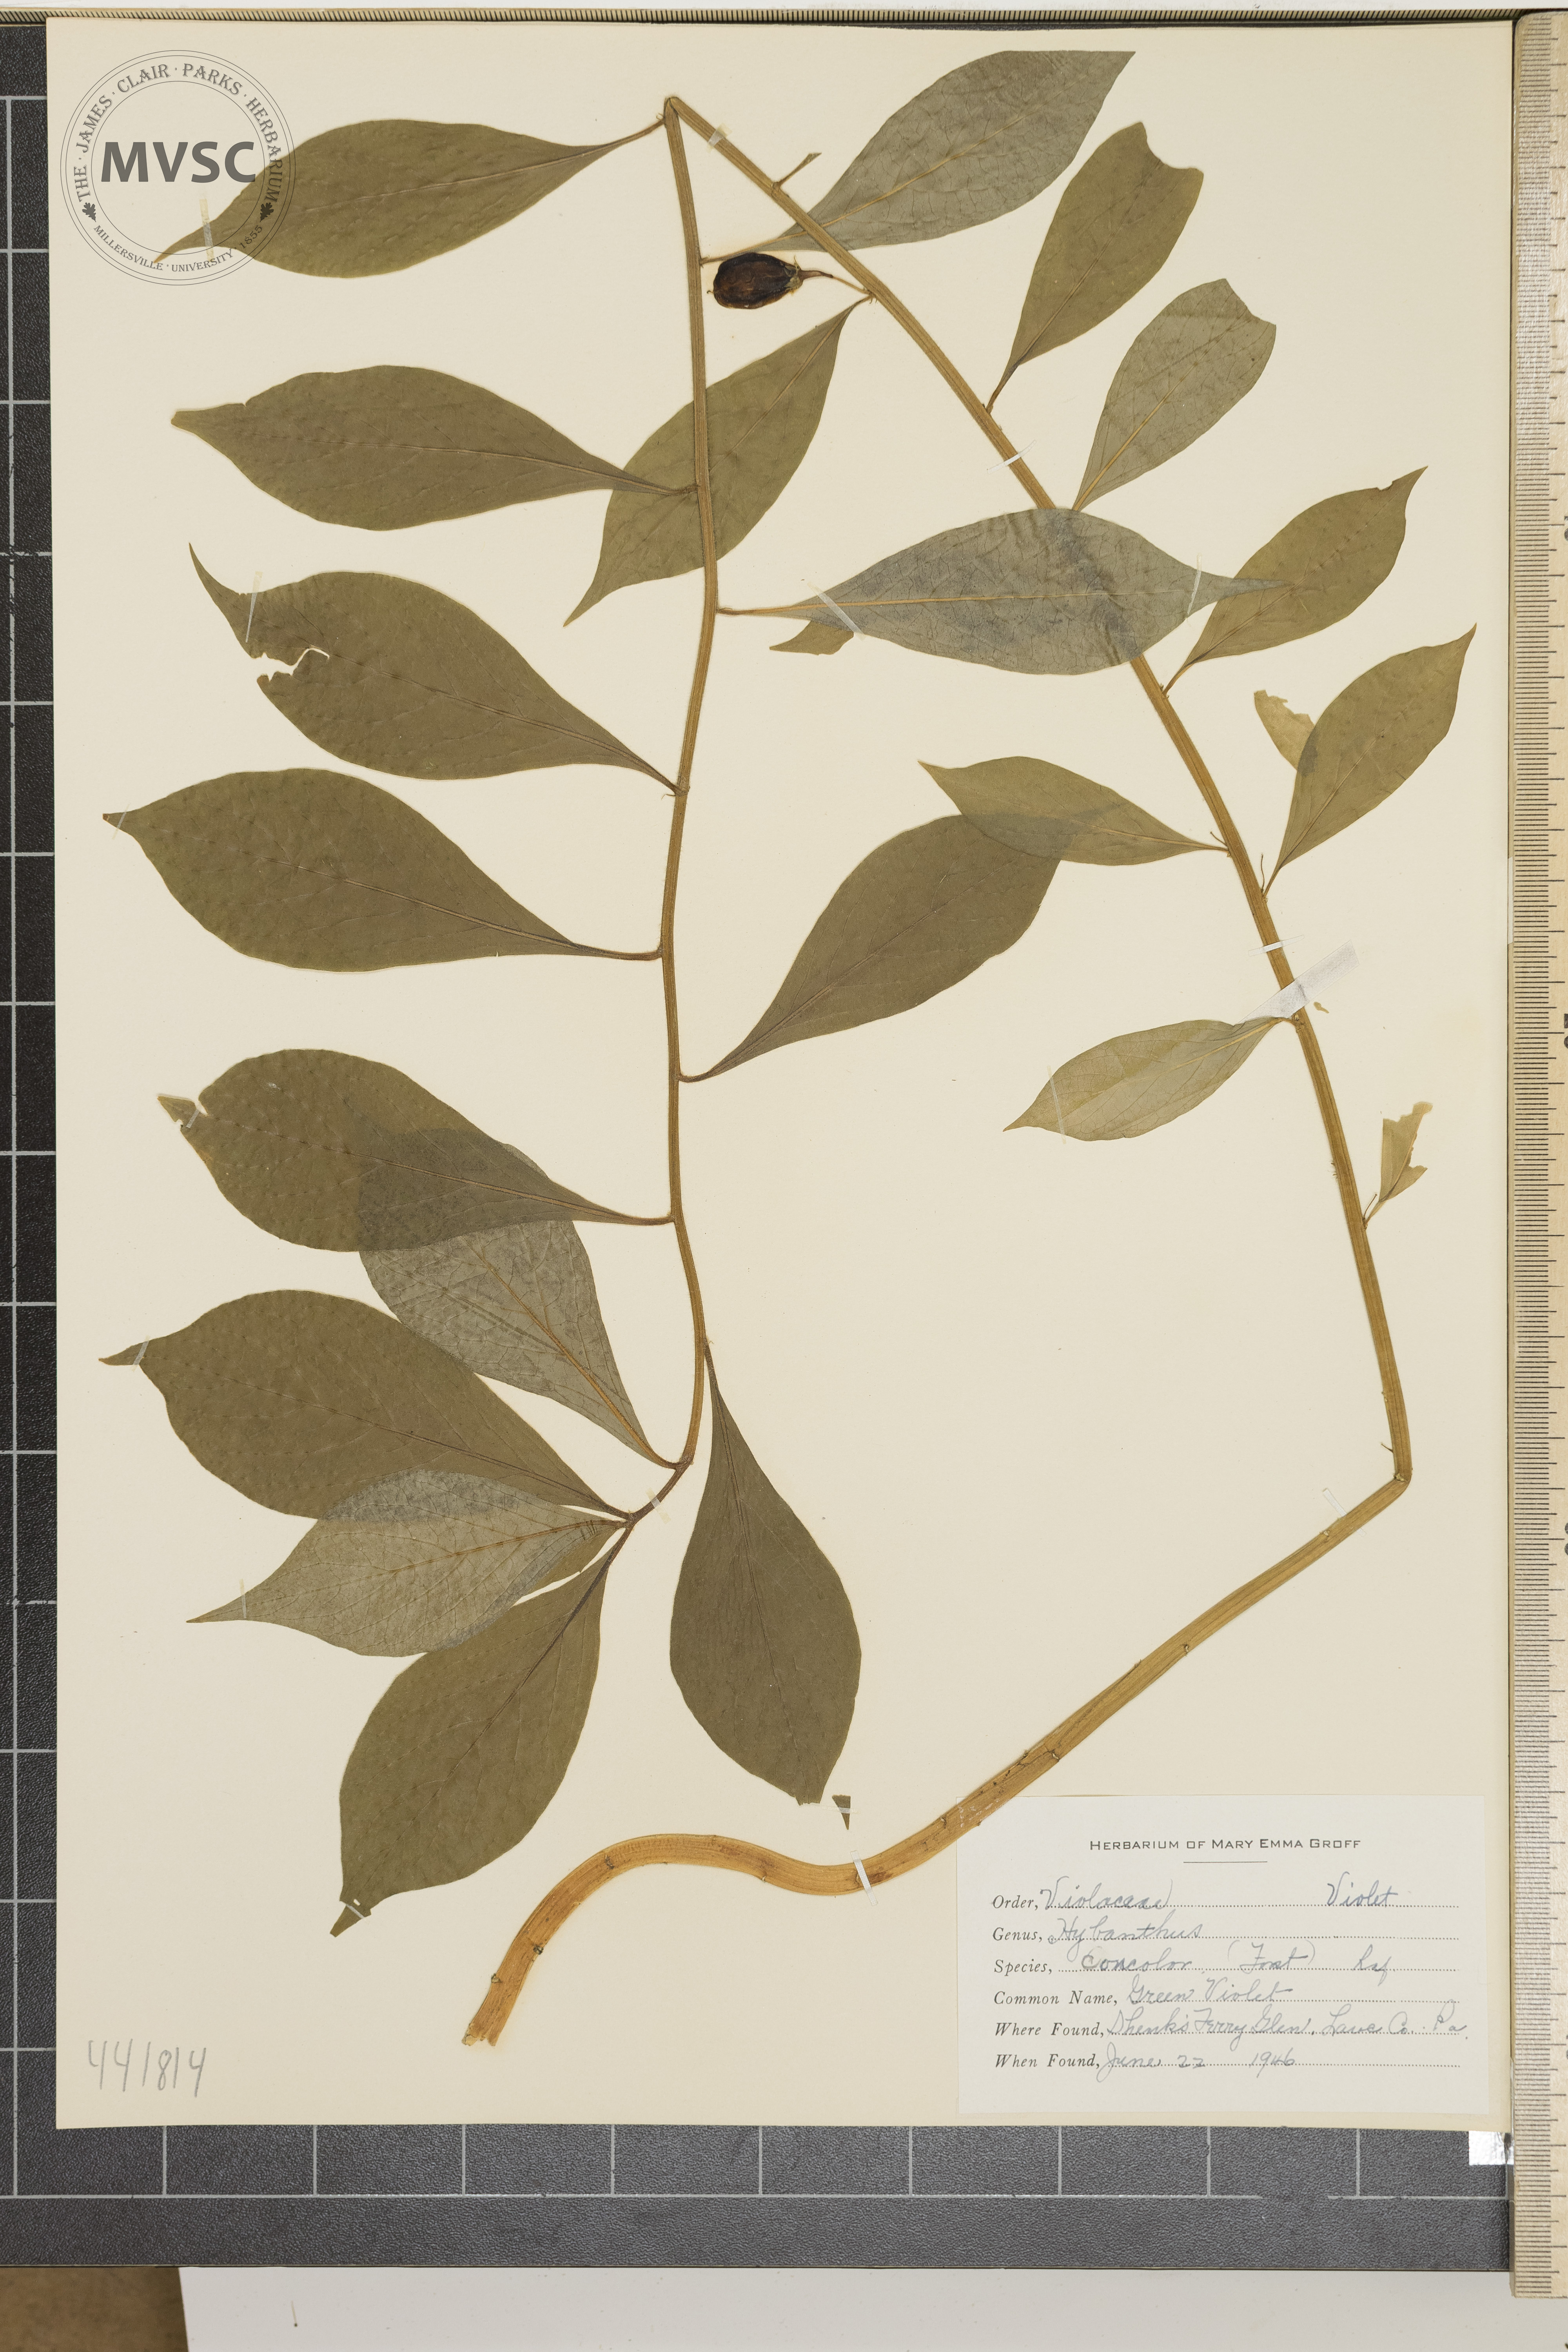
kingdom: Plantae
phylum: Tracheophyta
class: Magnoliopsida
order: Malpighiales
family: Violaceae
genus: Cubelium
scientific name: Cubelium concolor
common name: Green violet
